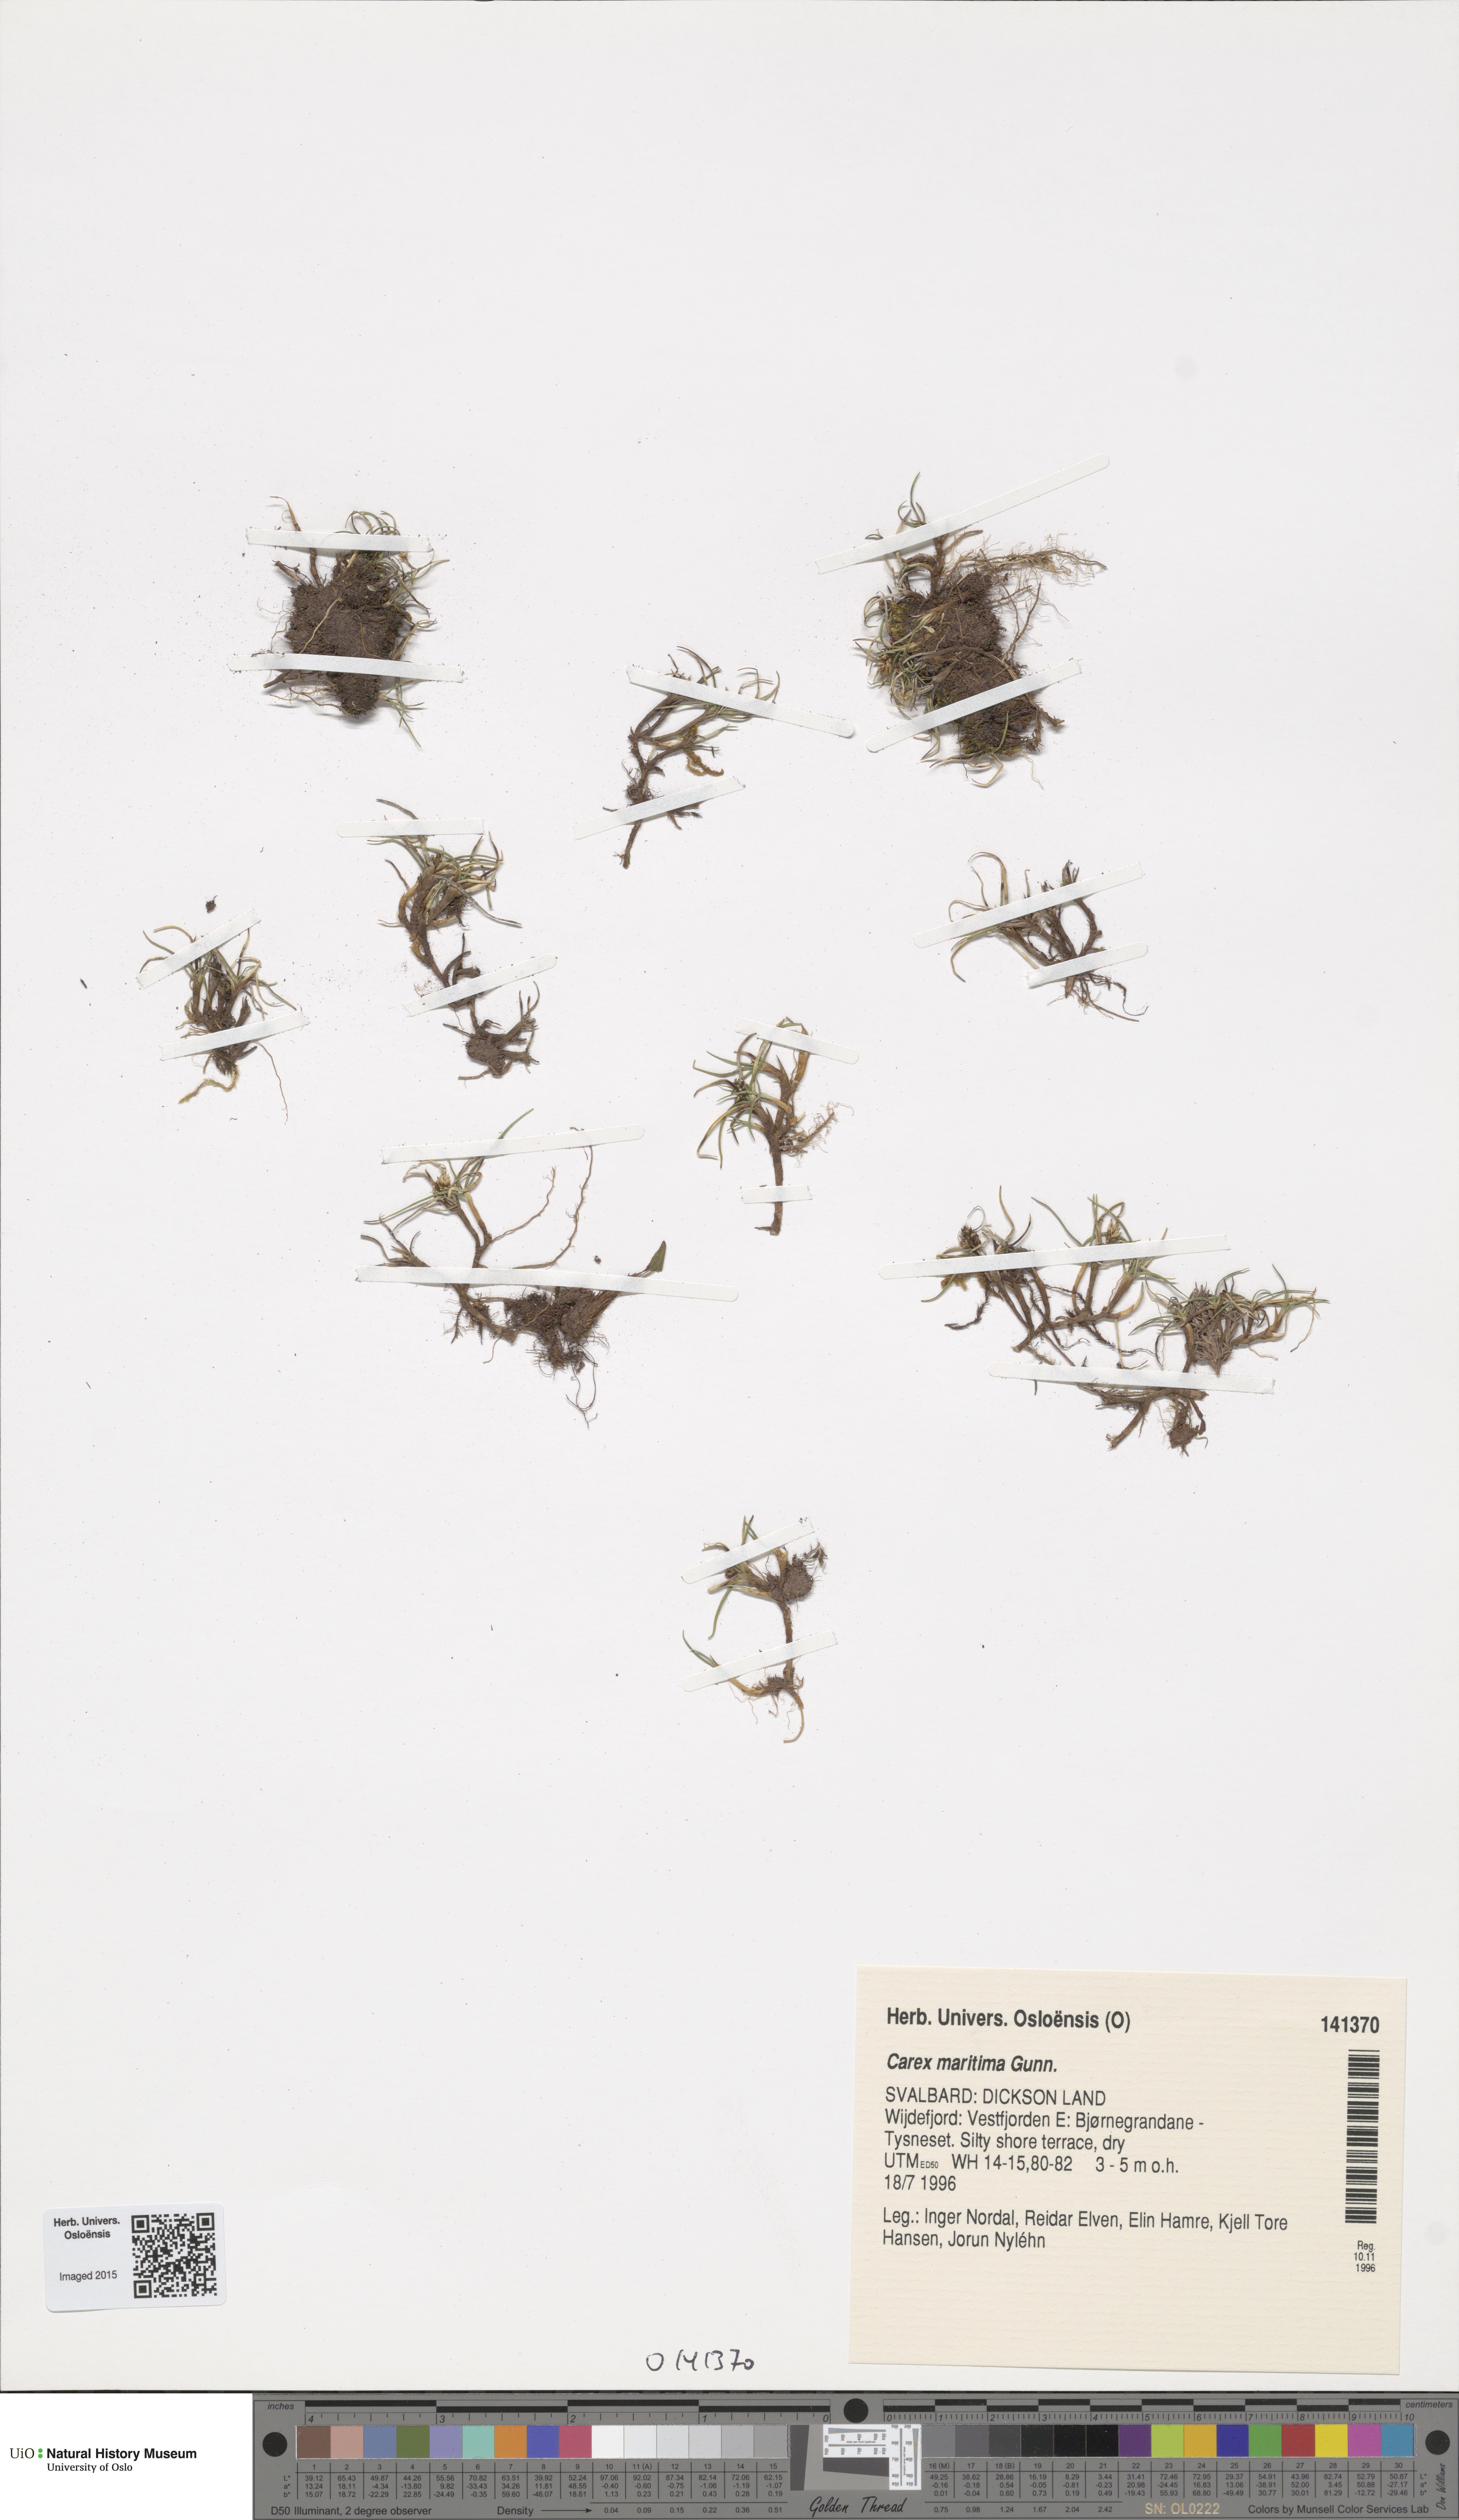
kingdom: Plantae
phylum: Tracheophyta
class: Liliopsida
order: Poales
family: Cyperaceae
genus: Carex
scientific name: Carex maritima
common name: Curved sedge
